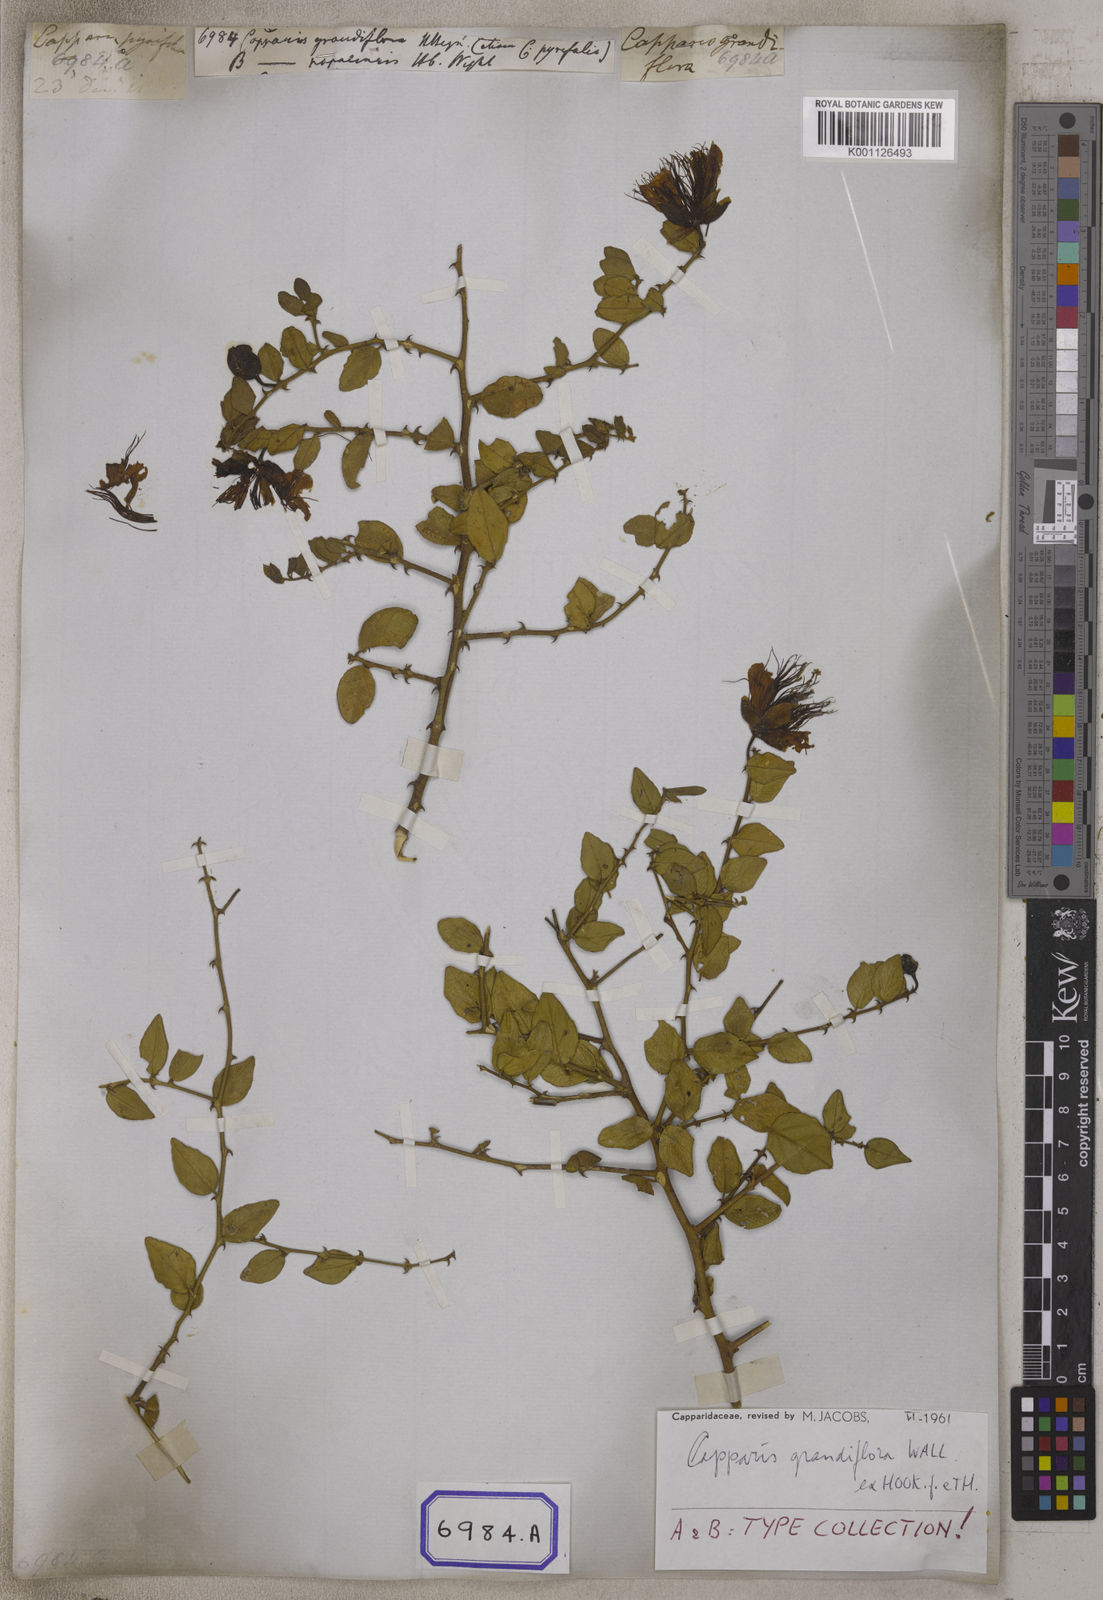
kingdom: Plantae
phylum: Tracheophyta
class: Magnoliopsida
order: Brassicales
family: Capparaceae
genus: Capparis
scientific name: Capparis
